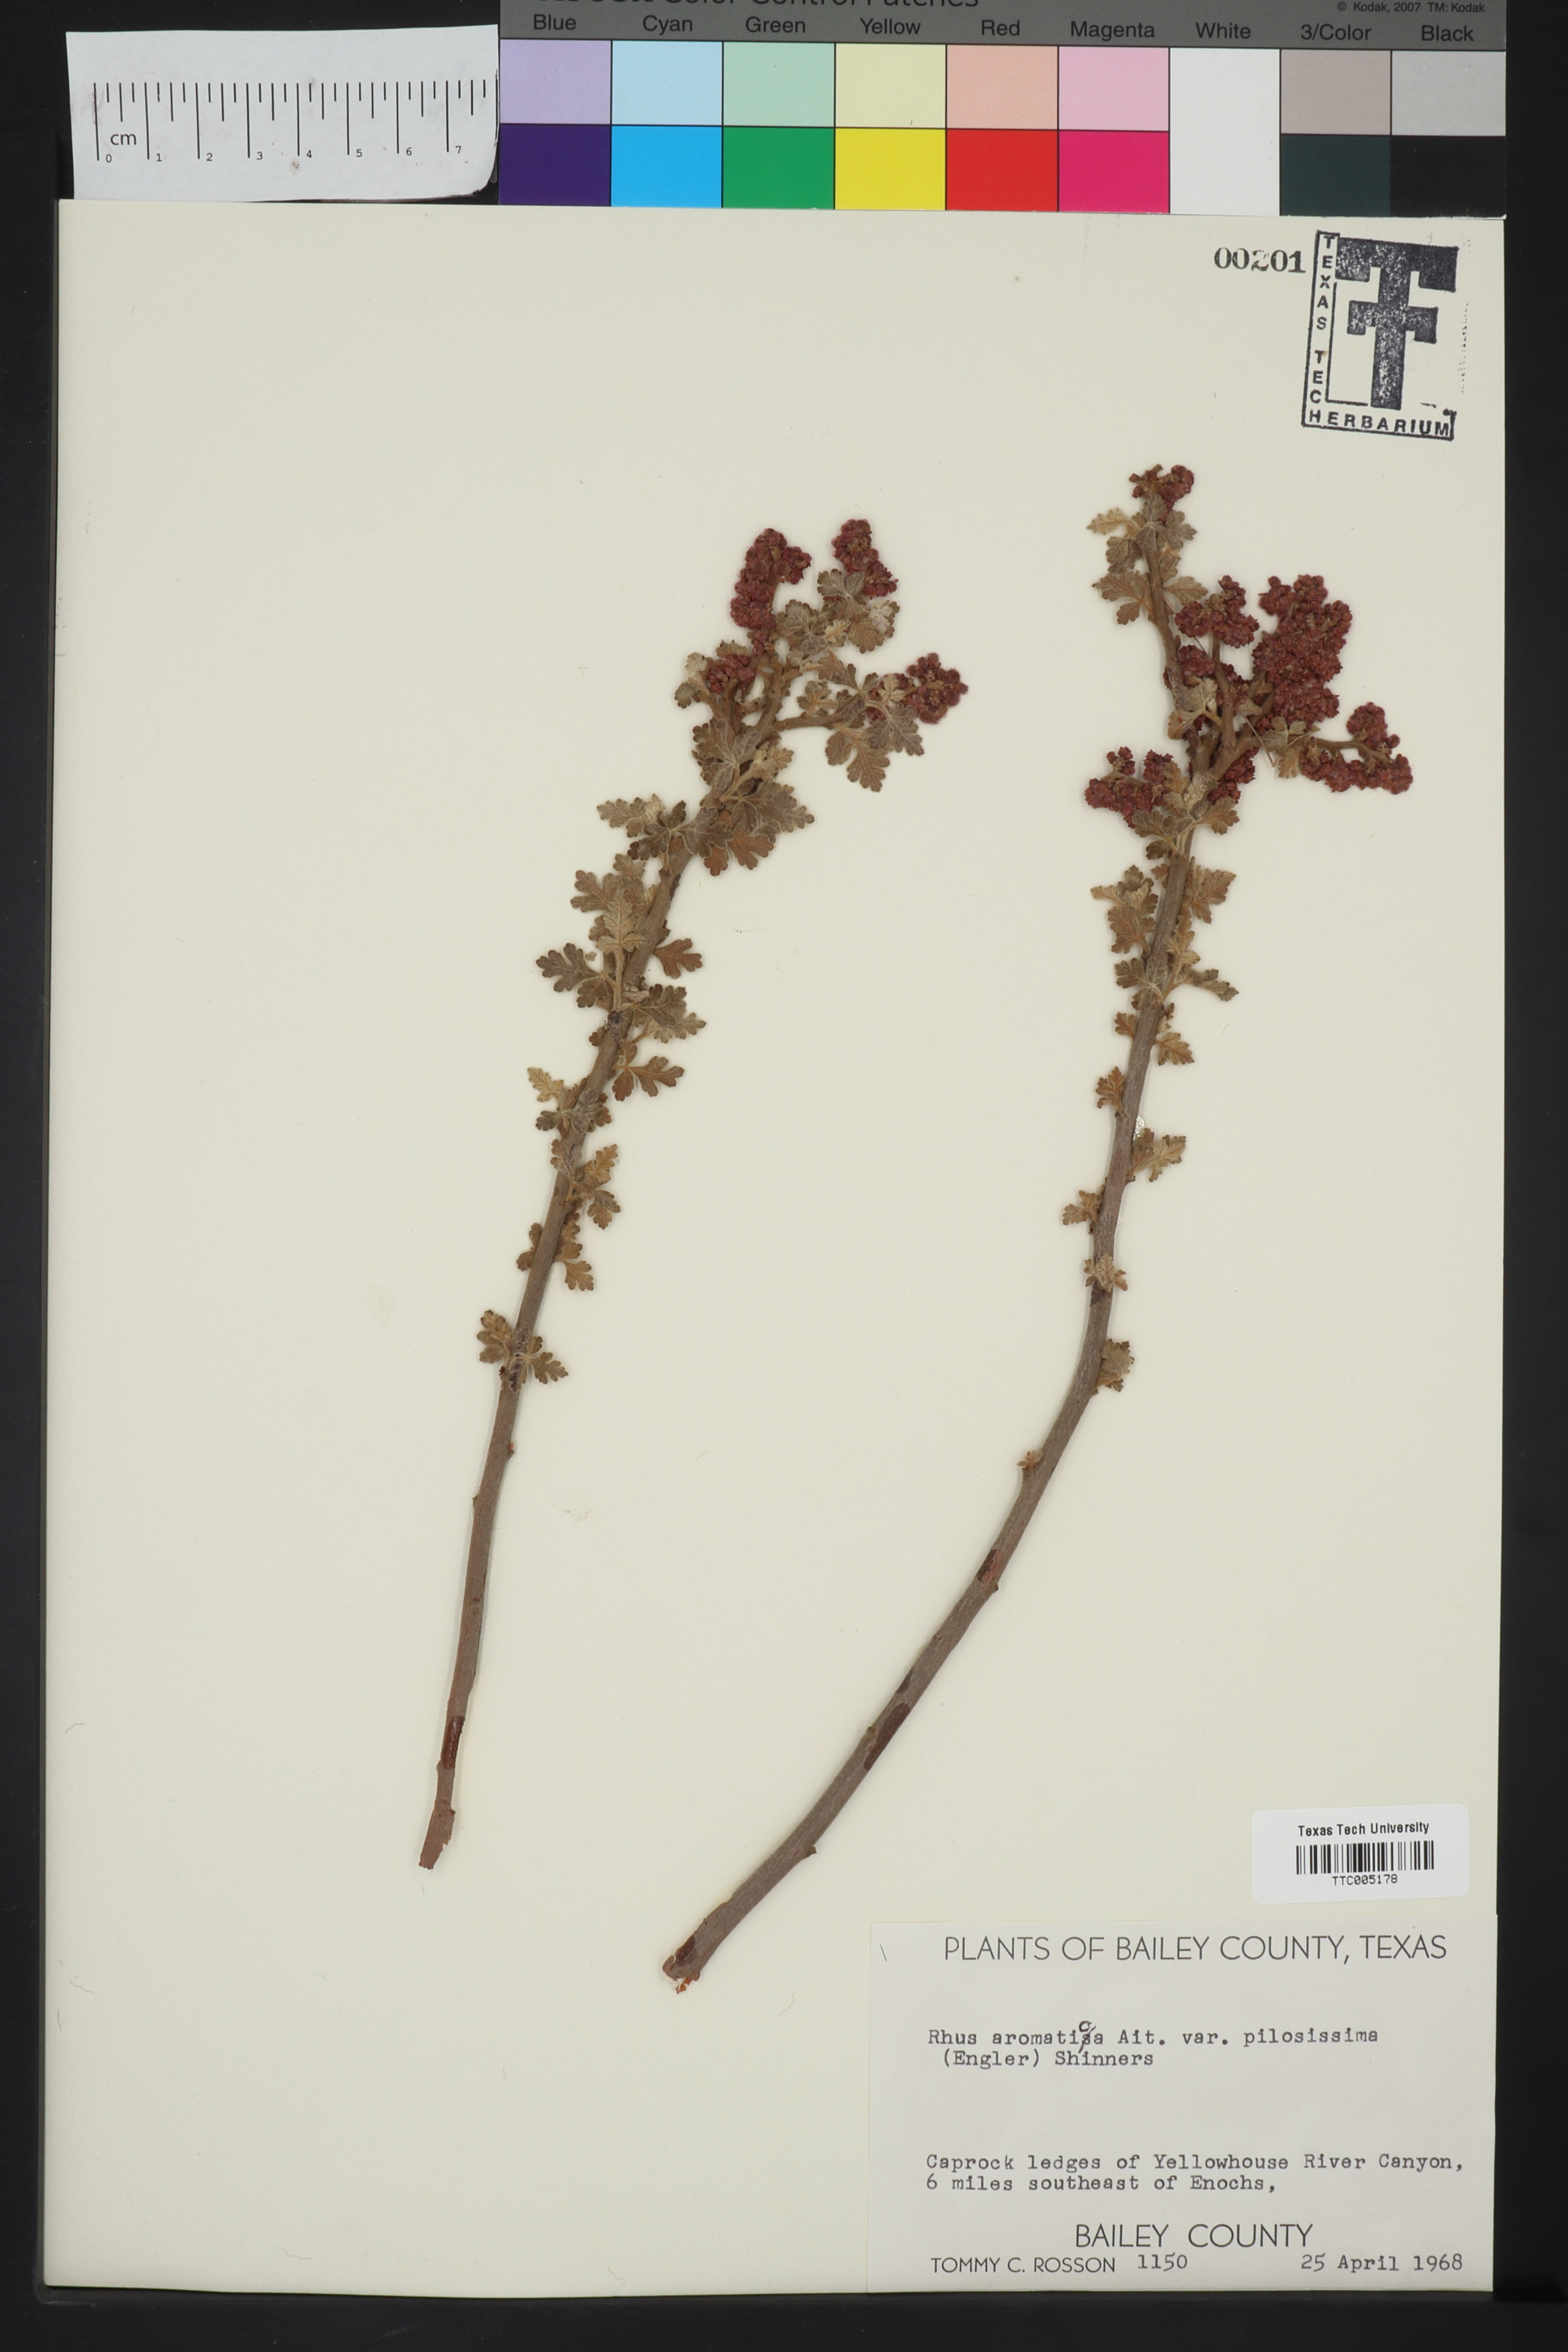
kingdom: Plantae
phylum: Tracheophyta
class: Magnoliopsida
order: Sapindales
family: Anacardiaceae
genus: Rhus
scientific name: Rhus trilobata
